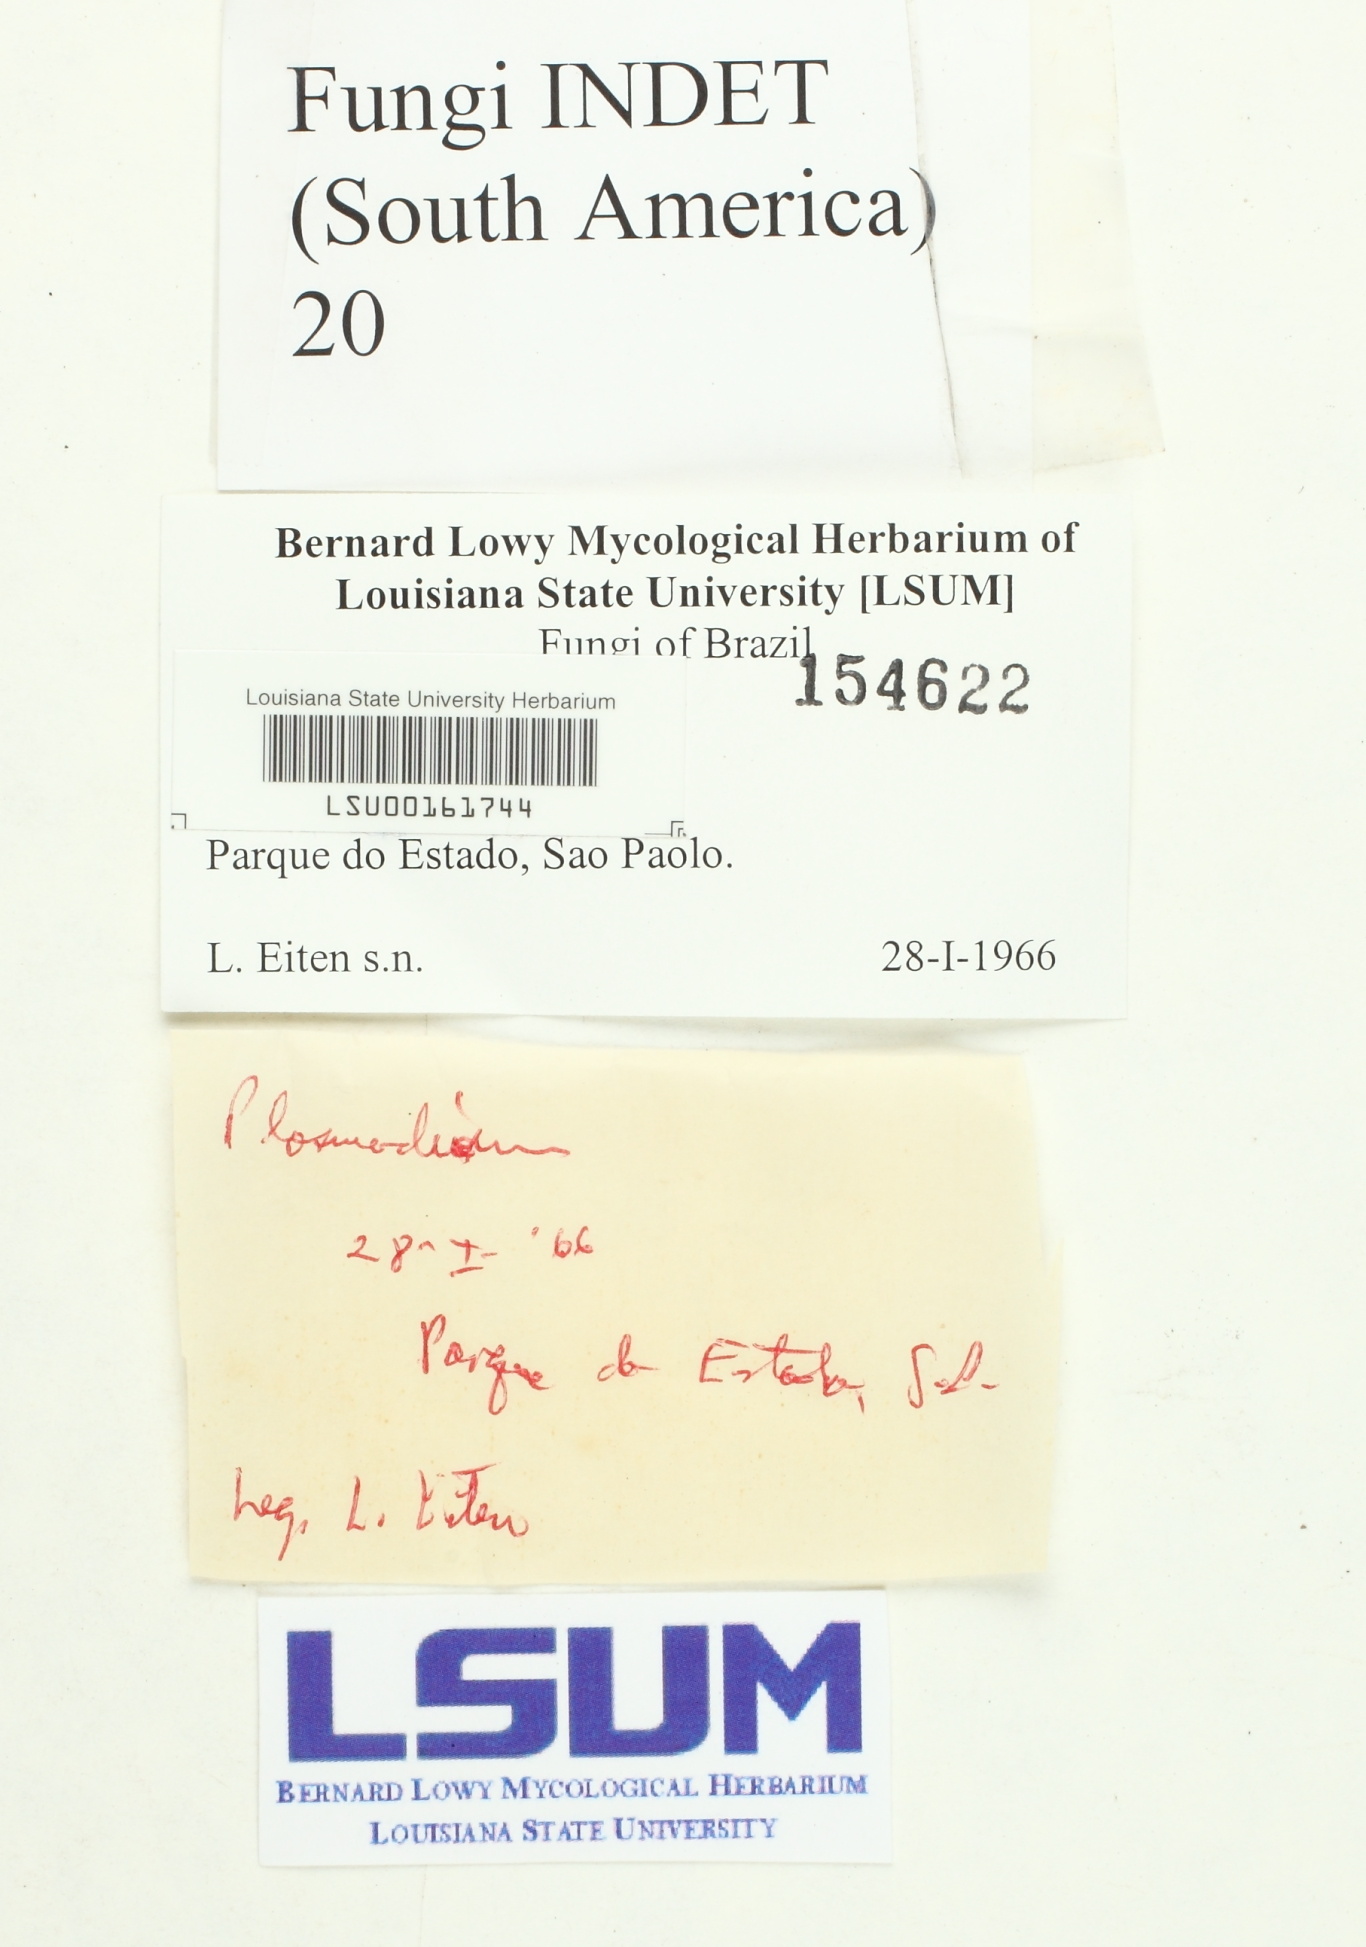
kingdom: Fungi
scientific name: Fungi
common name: Fungi
